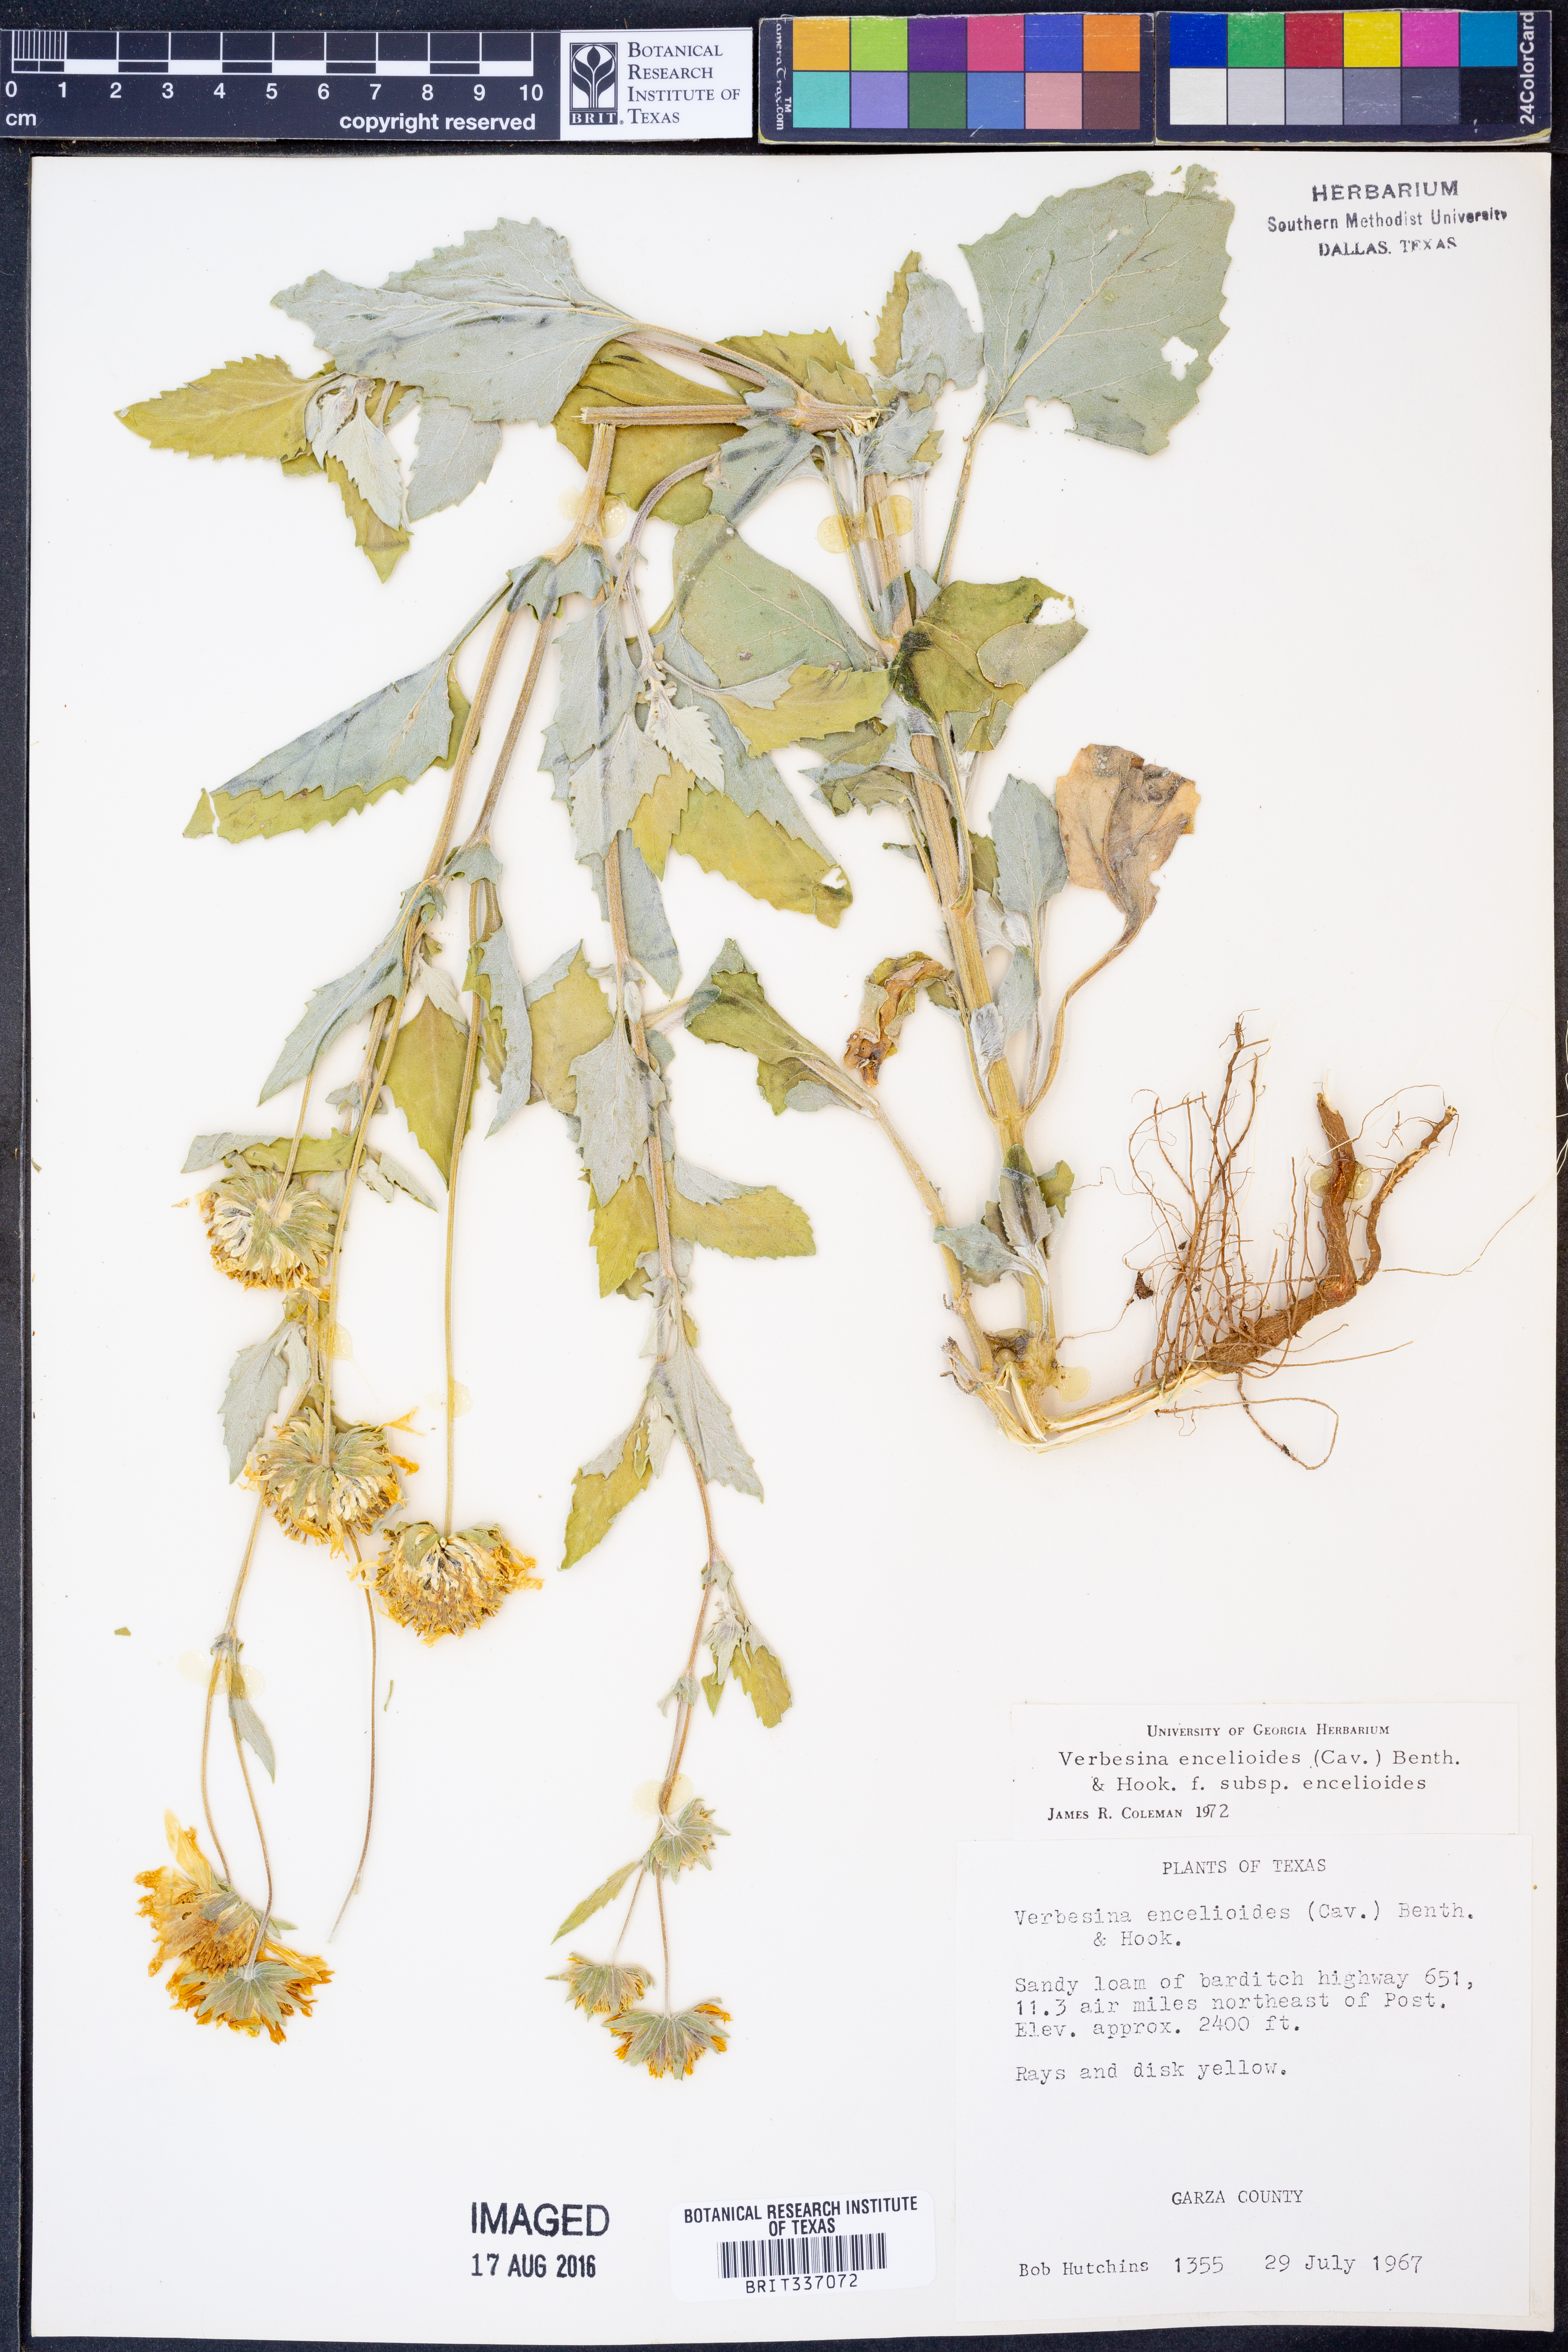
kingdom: Plantae
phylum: Tracheophyta
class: Magnoliopsida
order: Asterales
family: Asteraceae
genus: Verbesina
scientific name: Verbesina encelioides
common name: Golden crownbeard
